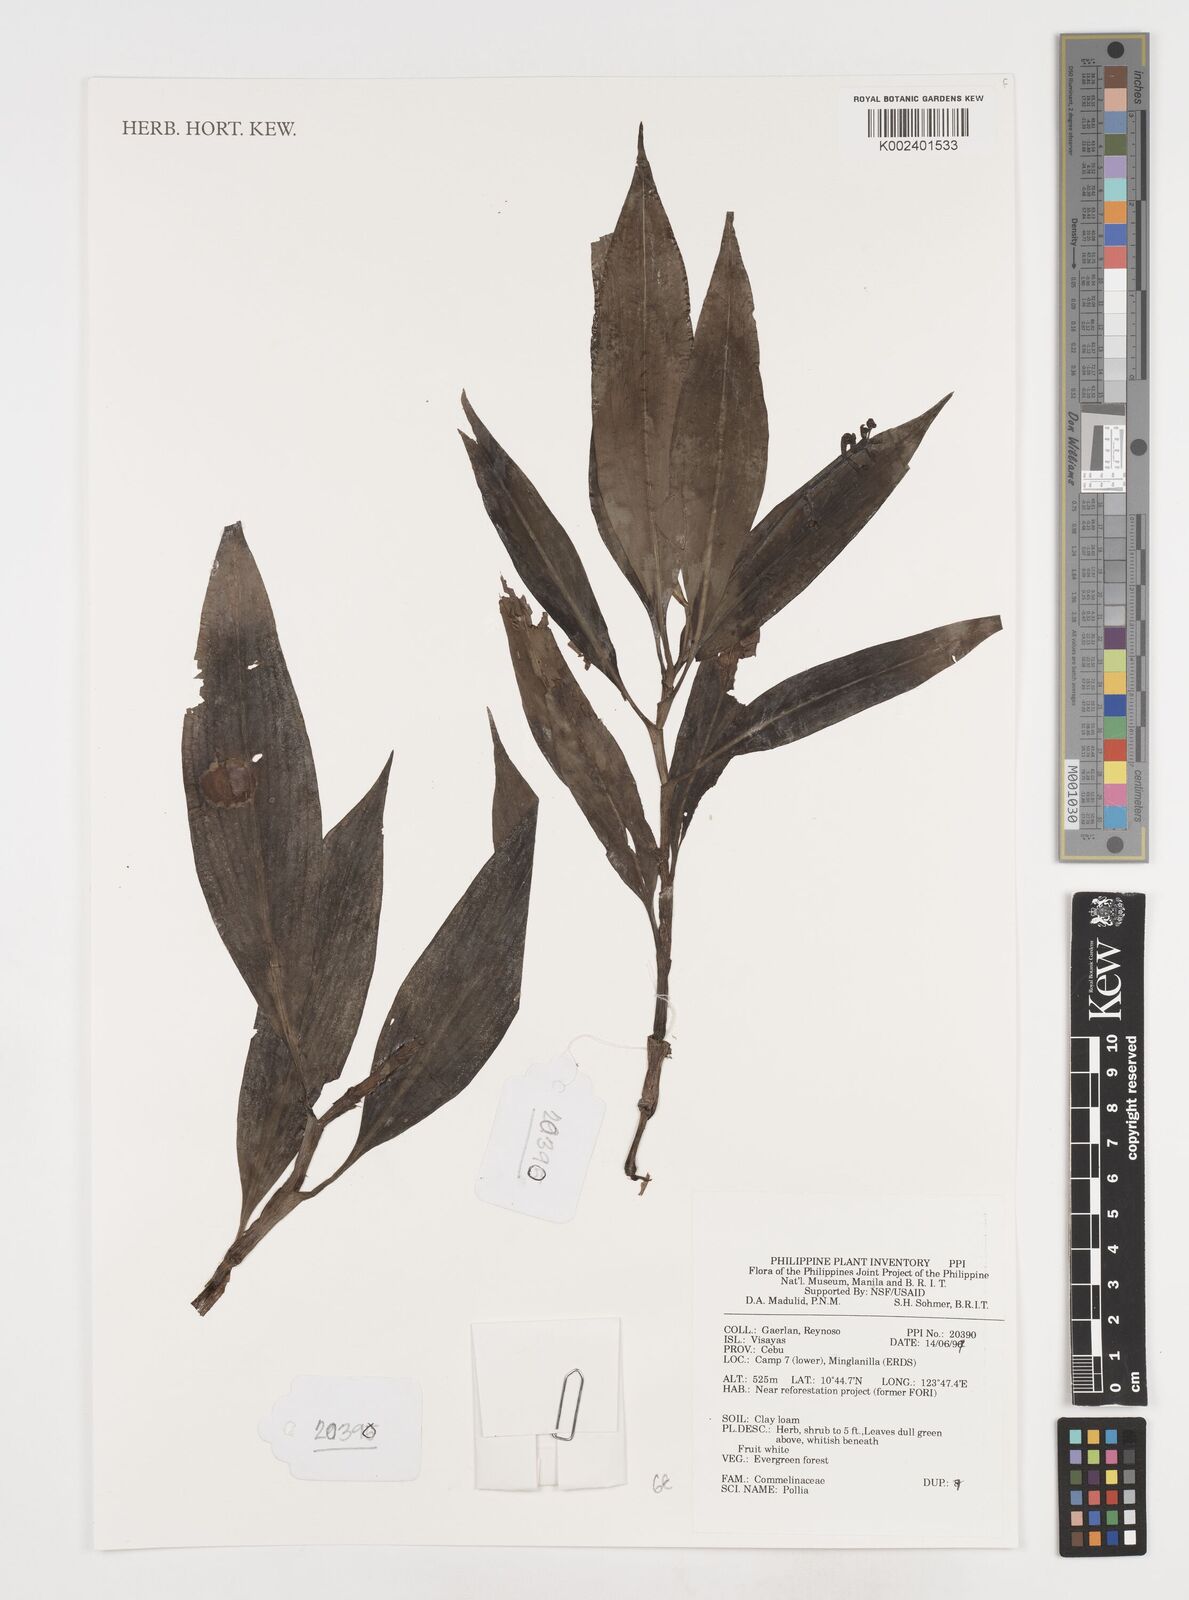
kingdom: Plantae
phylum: Tracheophyta
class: Liliopsida
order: Commelinales
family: Commelinaceae
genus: Pollia
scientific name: Pollia
